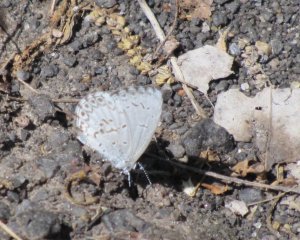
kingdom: Animalia
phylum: Arthropoda
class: Insecta
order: Lepidoptera
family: Lycaenidae
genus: Cyaniris
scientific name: Cyaniris neglecta
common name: Summer Azure
